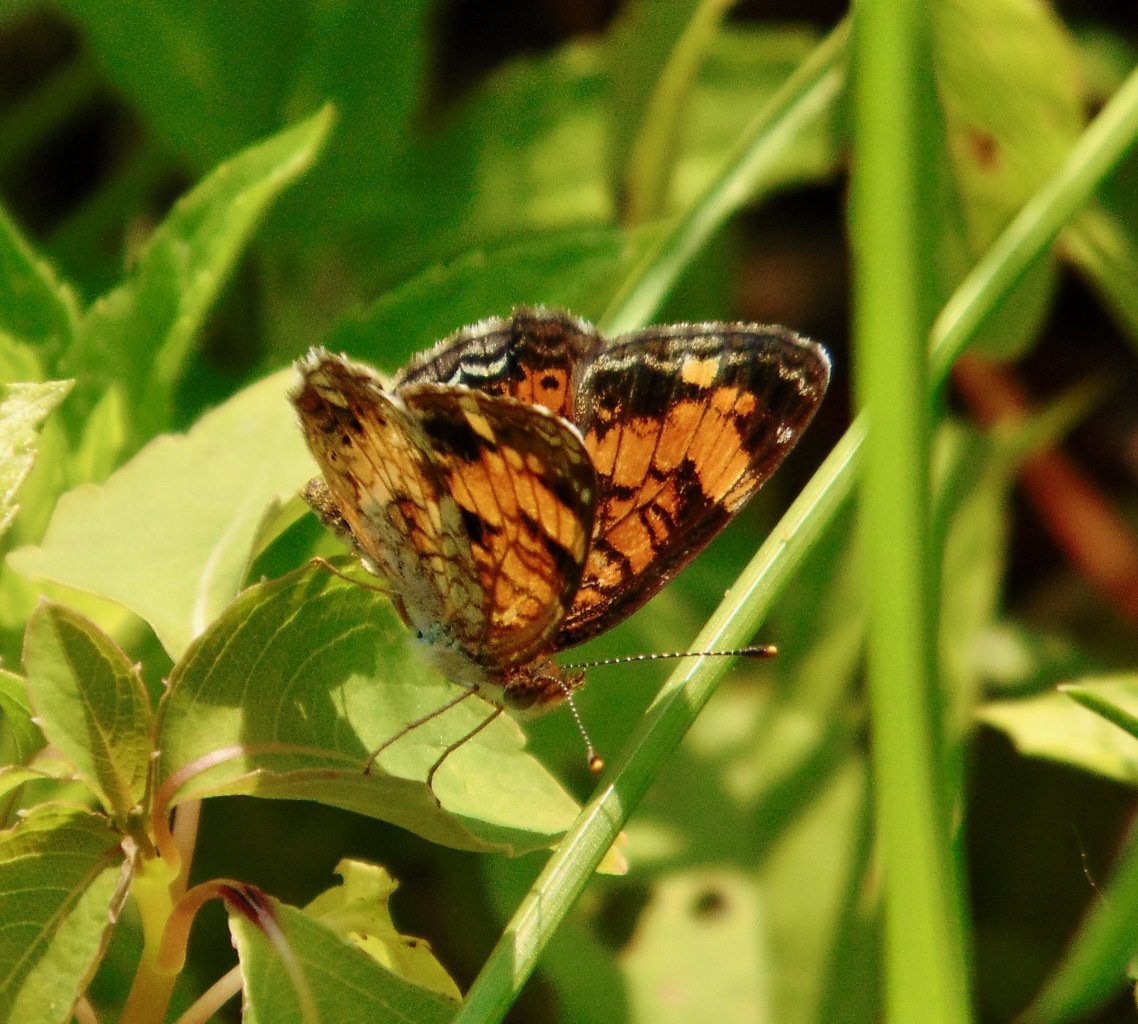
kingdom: Animalia
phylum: Arthropoda
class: Insecta
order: Lepidoptera
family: Nymphalidae
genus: Phyciodes
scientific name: Phyciodes tharos
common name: Pearl Crescent
